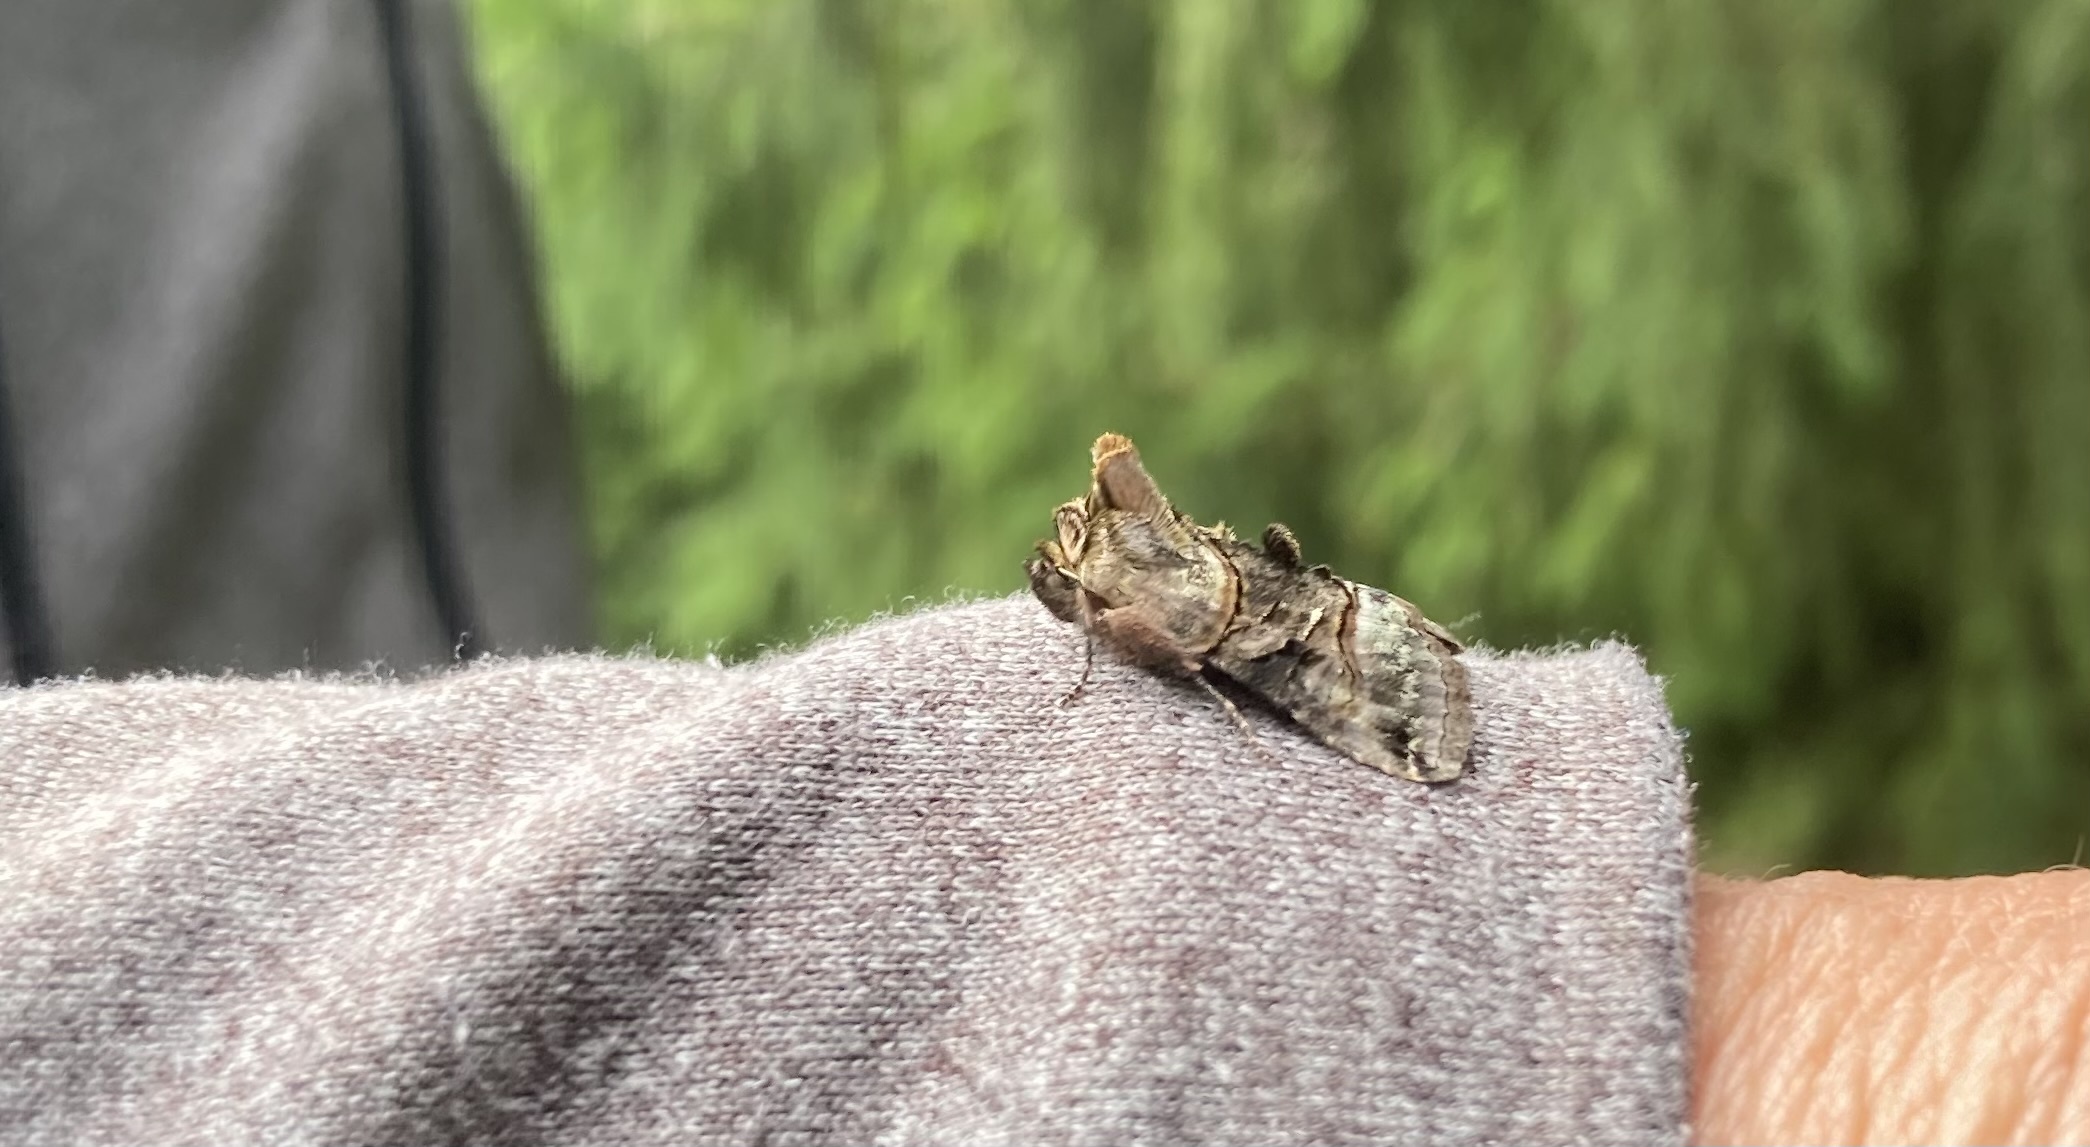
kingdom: Animalia
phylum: Arthropoda
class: Insecta
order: Lepidoptera
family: Noctuidae
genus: Abrostola
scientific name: Abrostola tripartita
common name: Spectacle
